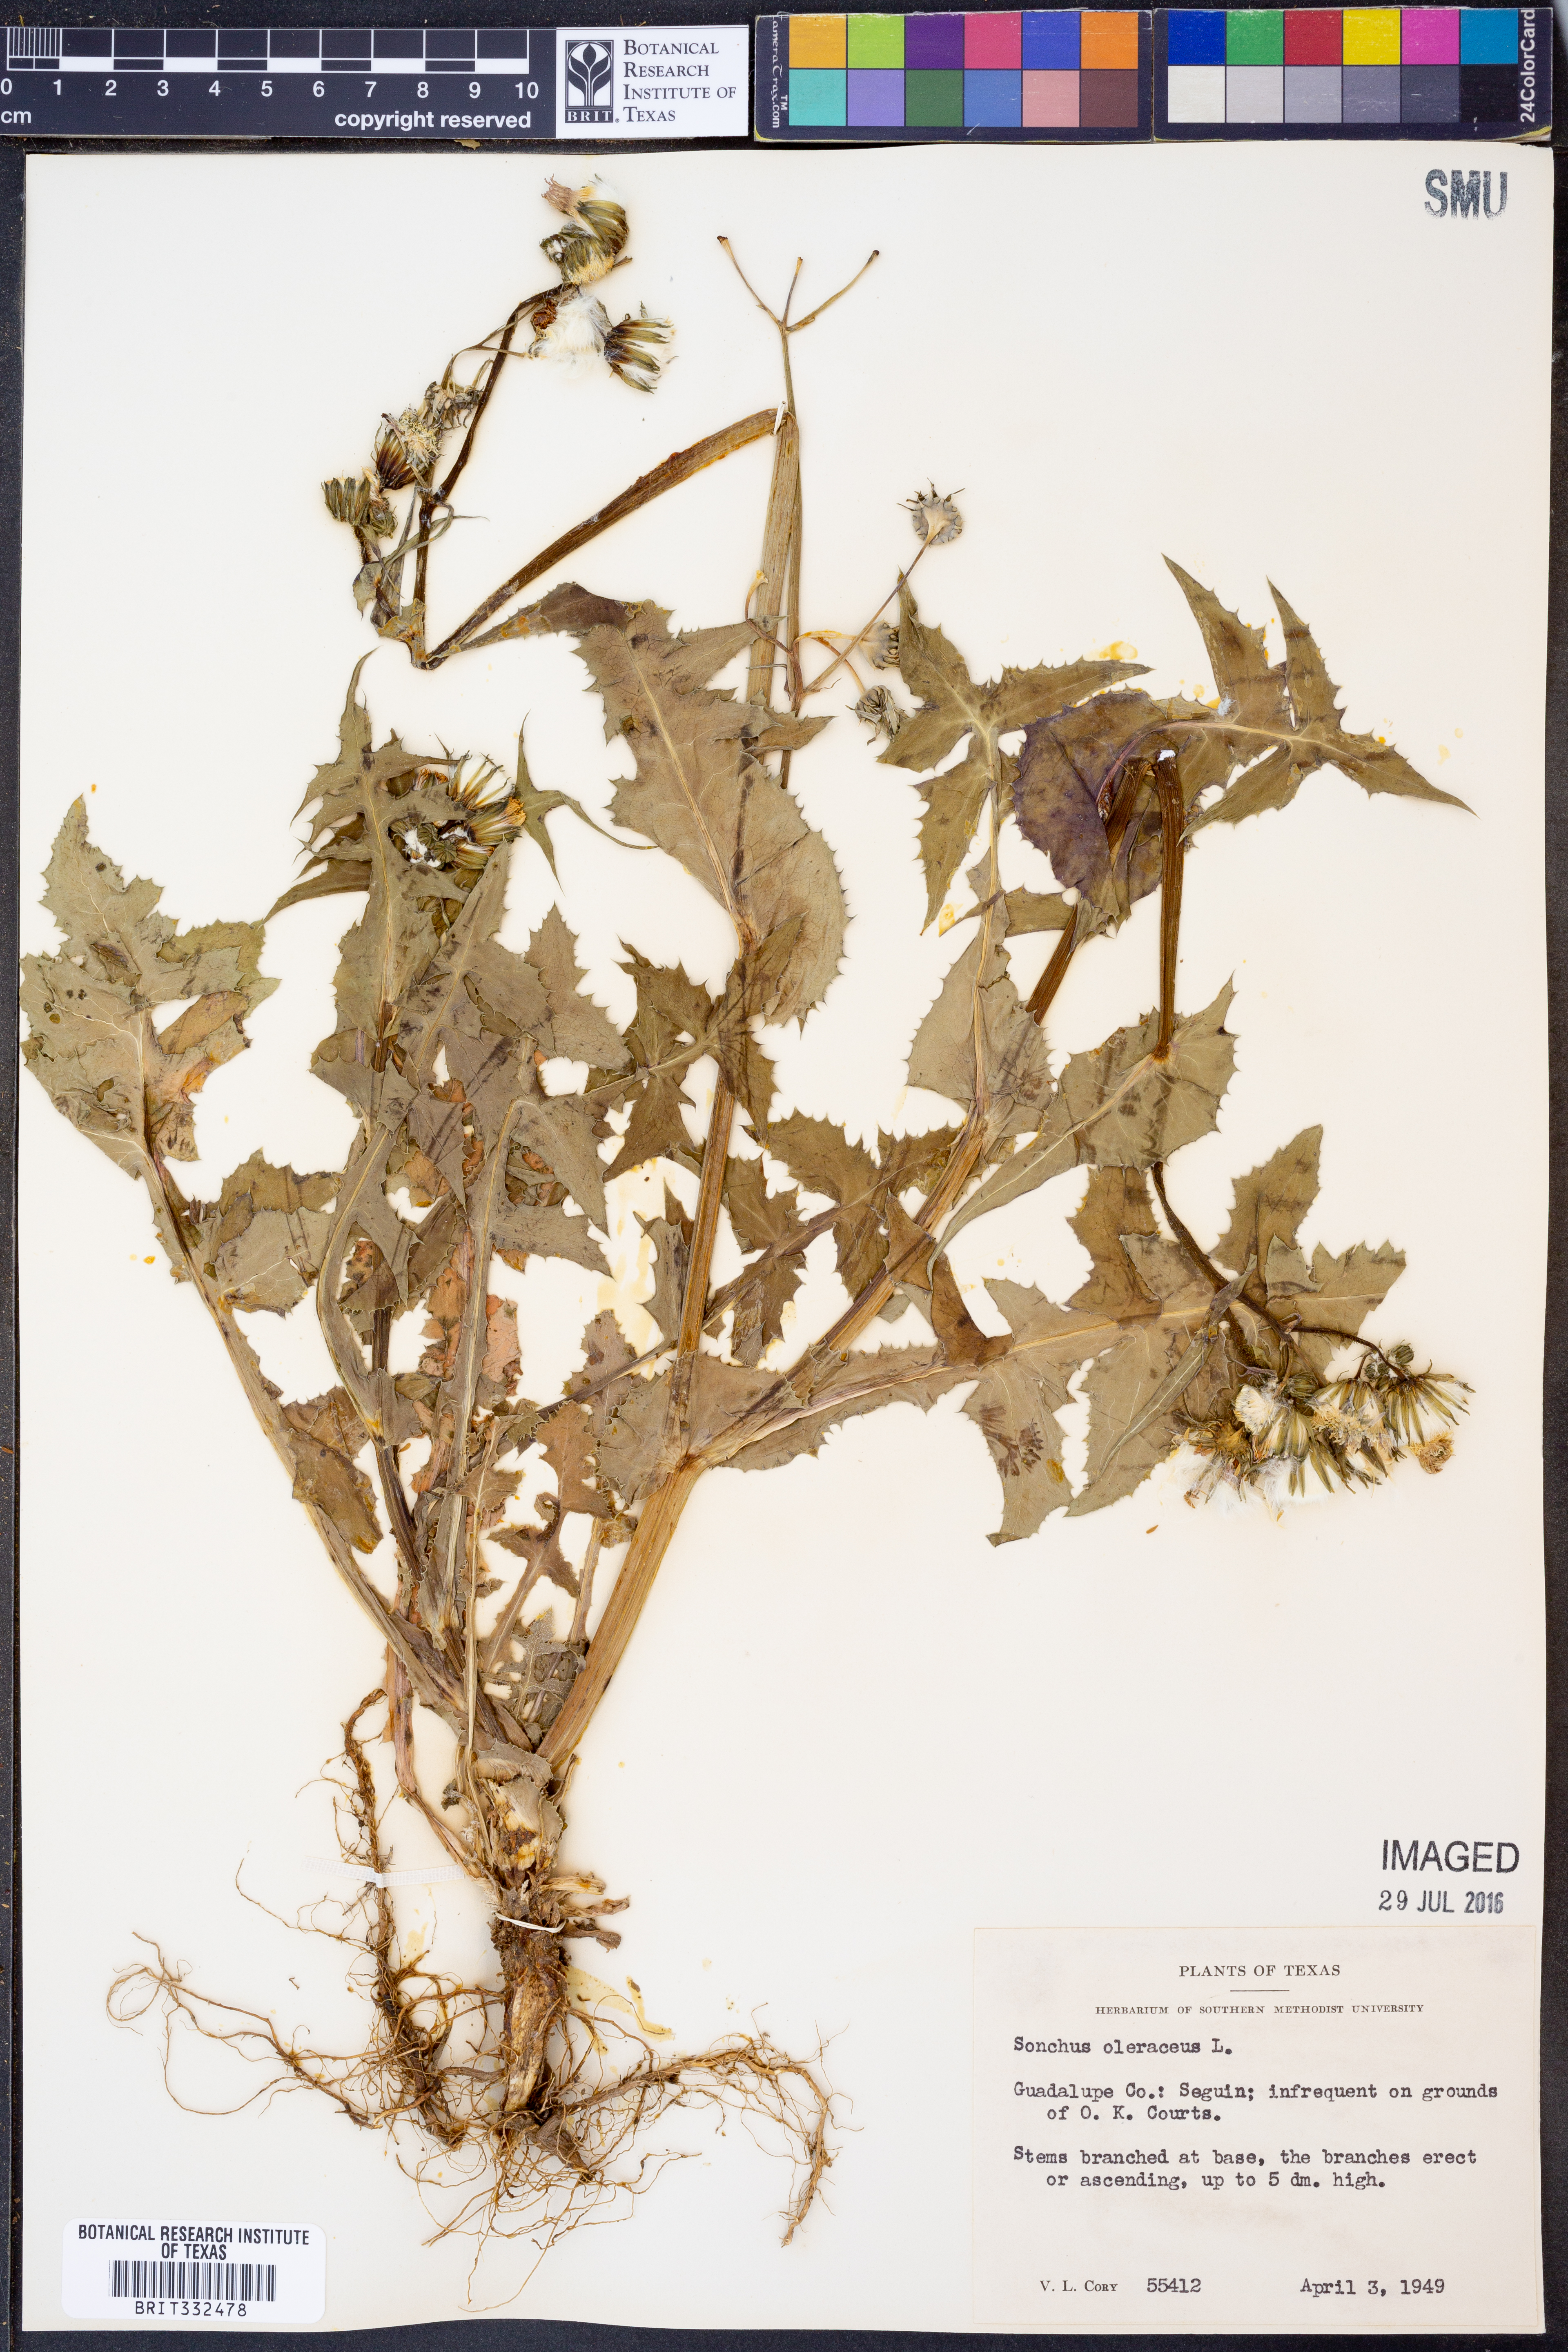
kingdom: Plantae
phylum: Tracheophyta
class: Magnoliopsida
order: Asterales
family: Asteraceae
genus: Sonchus
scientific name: Sonchus oleraceus
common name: Common sowthistle
